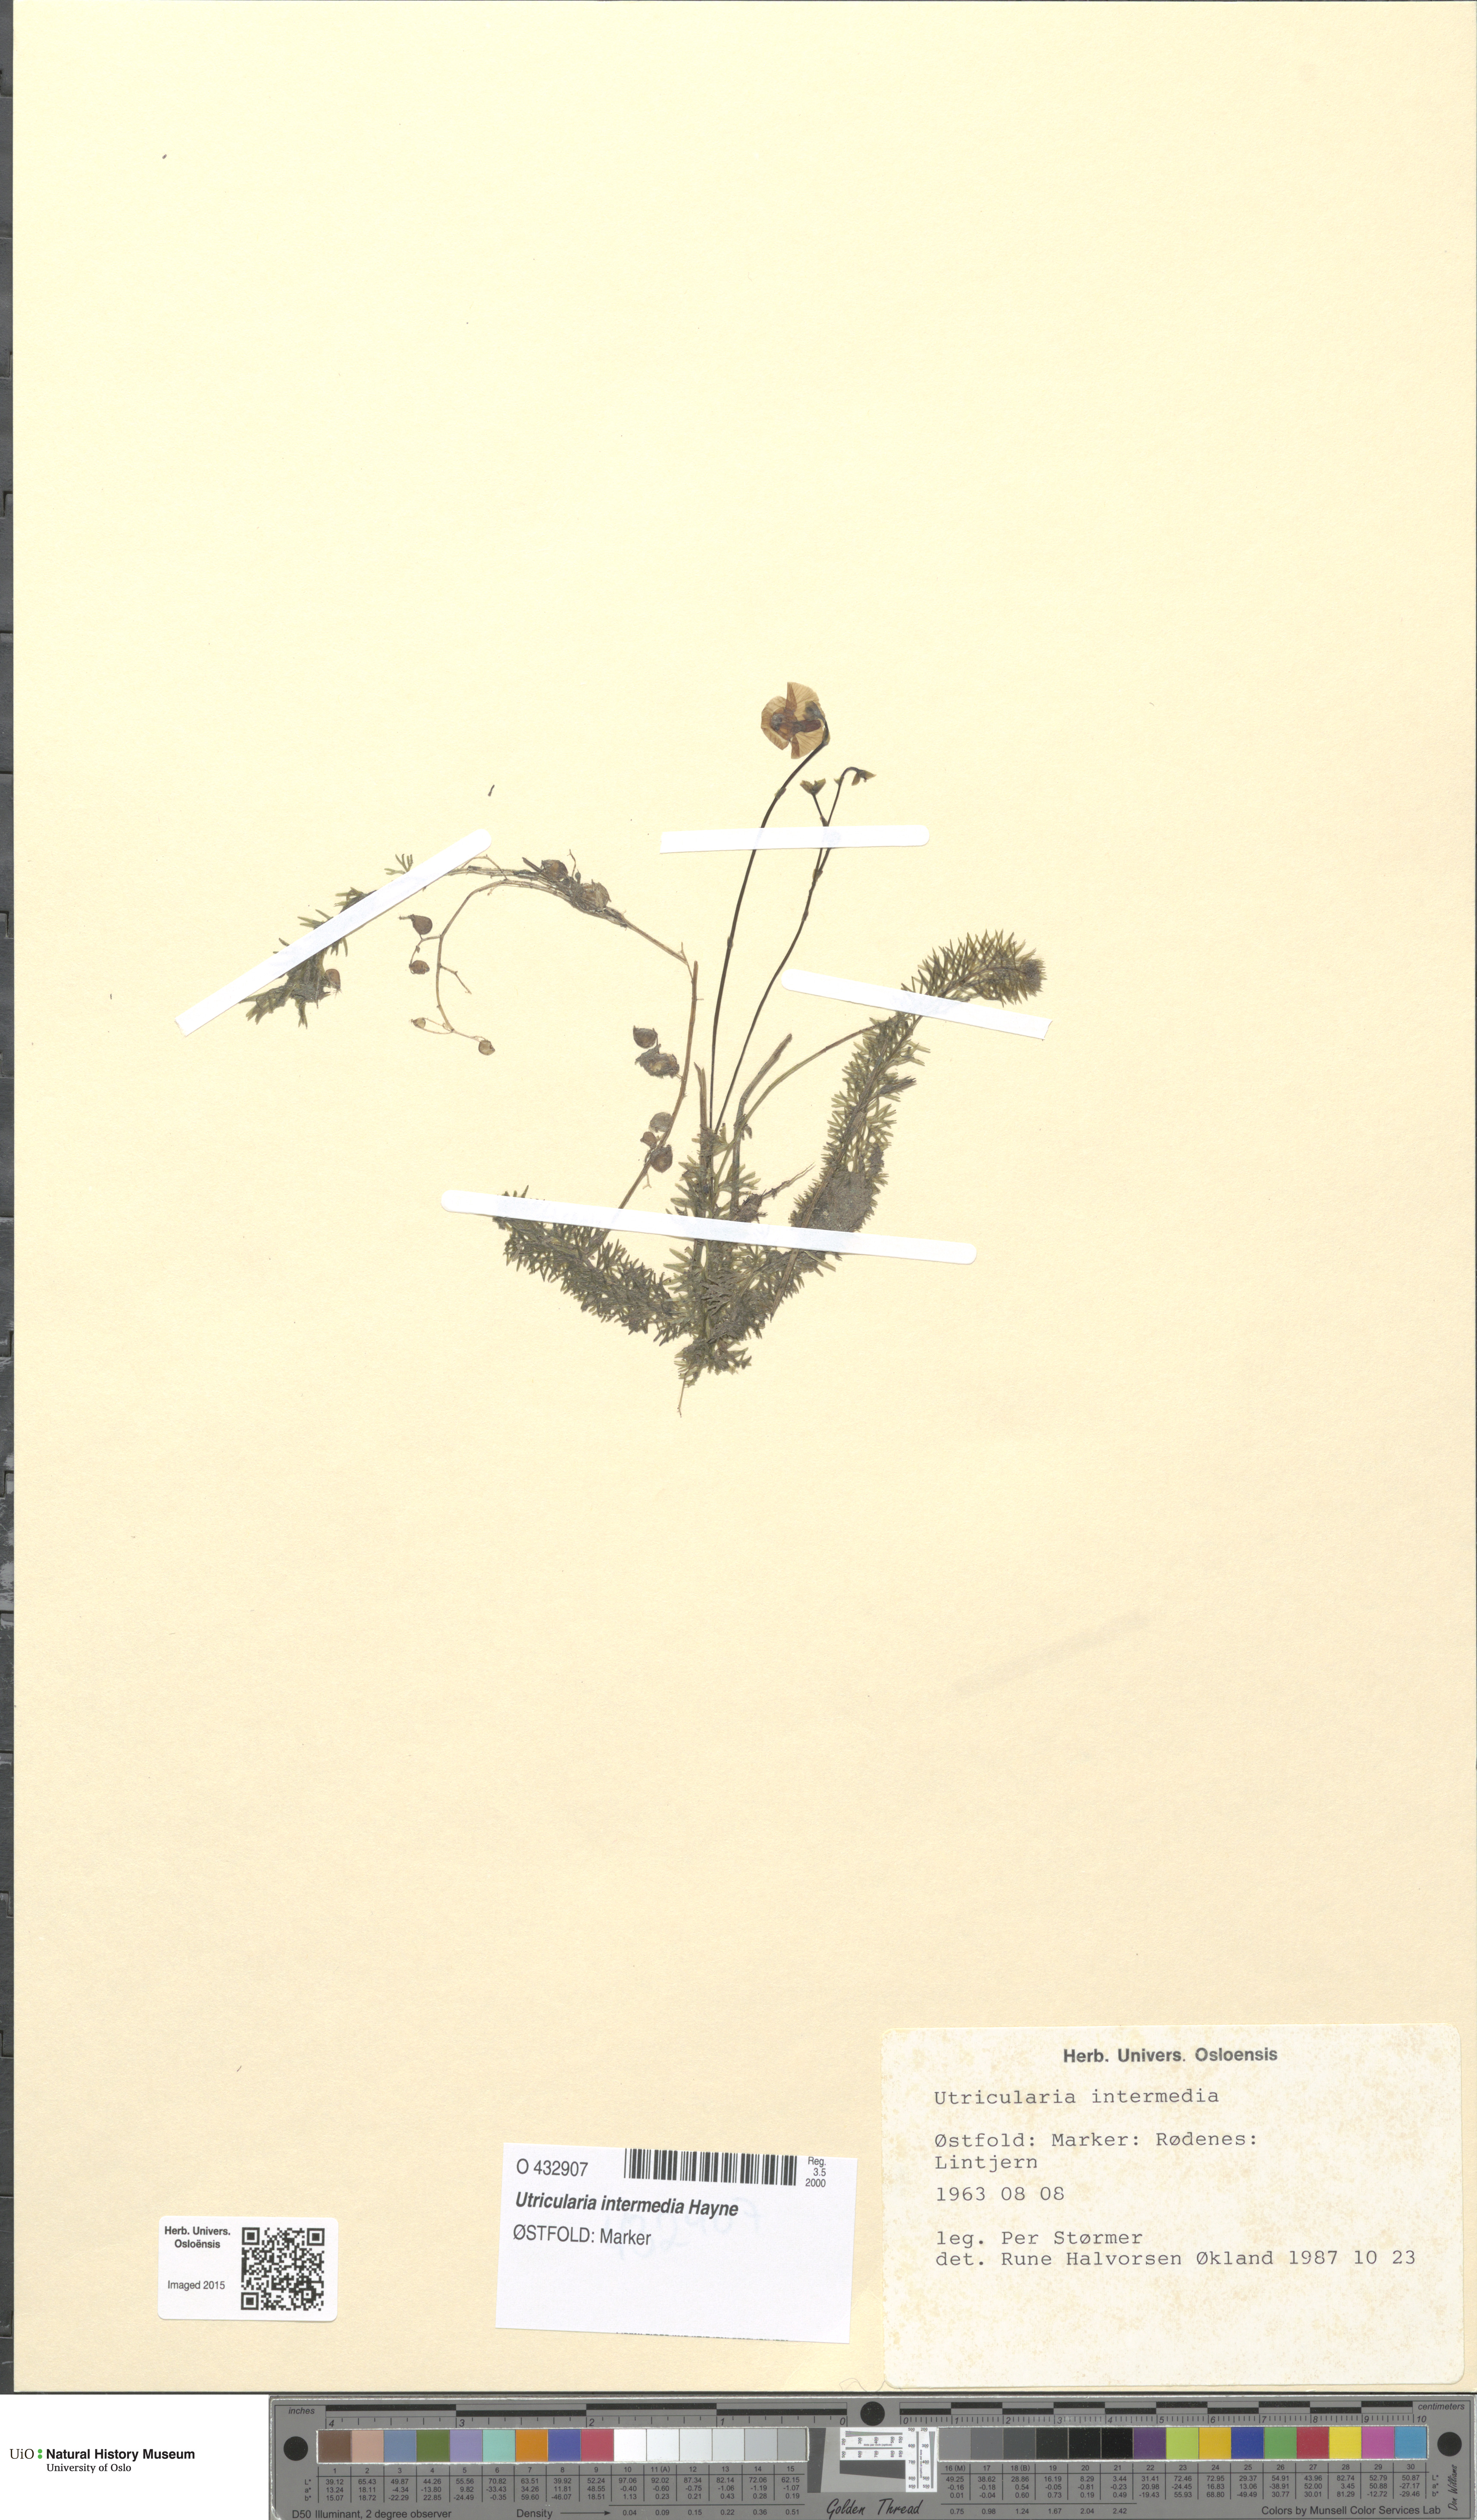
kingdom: Plantae
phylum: Tracheophyta
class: Magnoliopsida
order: Lamiales
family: Lentibulariaceae
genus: Utricularia
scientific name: Utricularia intermedia
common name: Intermediate bladderwort
